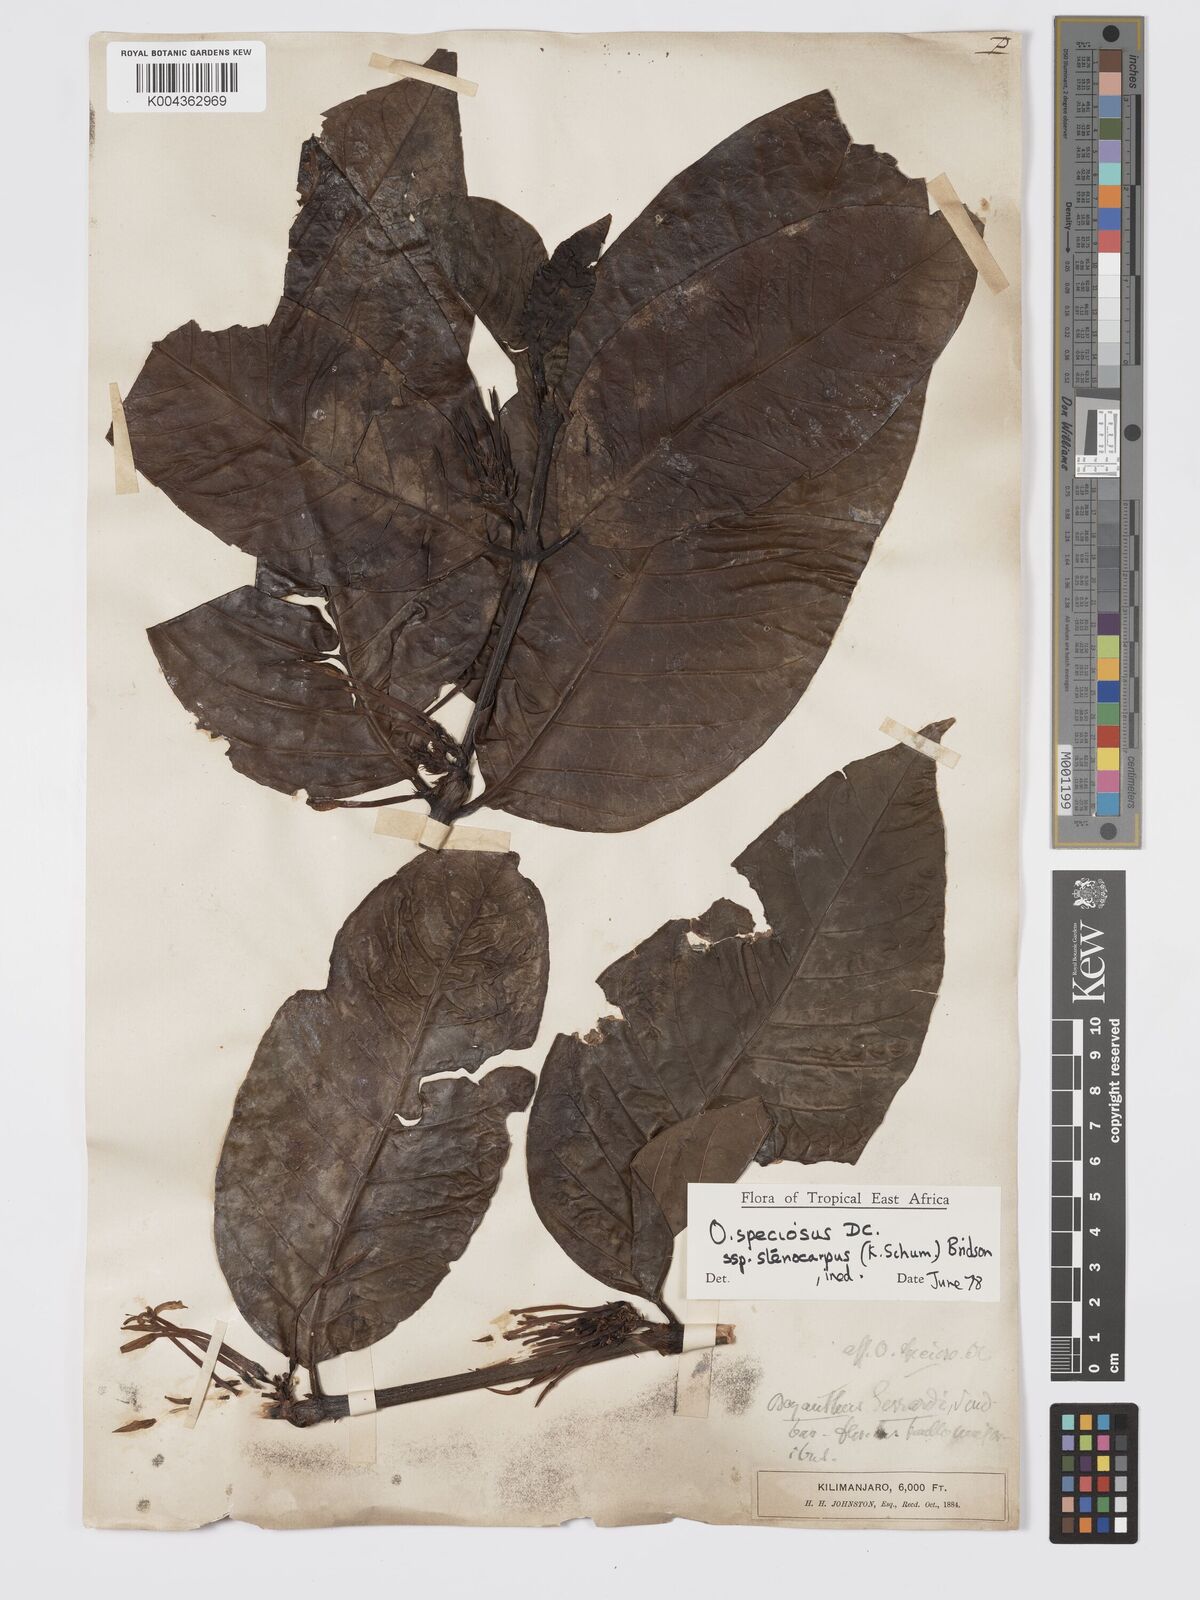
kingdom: Plantae
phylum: Tracheophyta
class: Magnoliopsida
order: Gentianales
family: Rubiaceae
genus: Oxyanthus
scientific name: Oxyanthus speciosus
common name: Whipstick loquat
